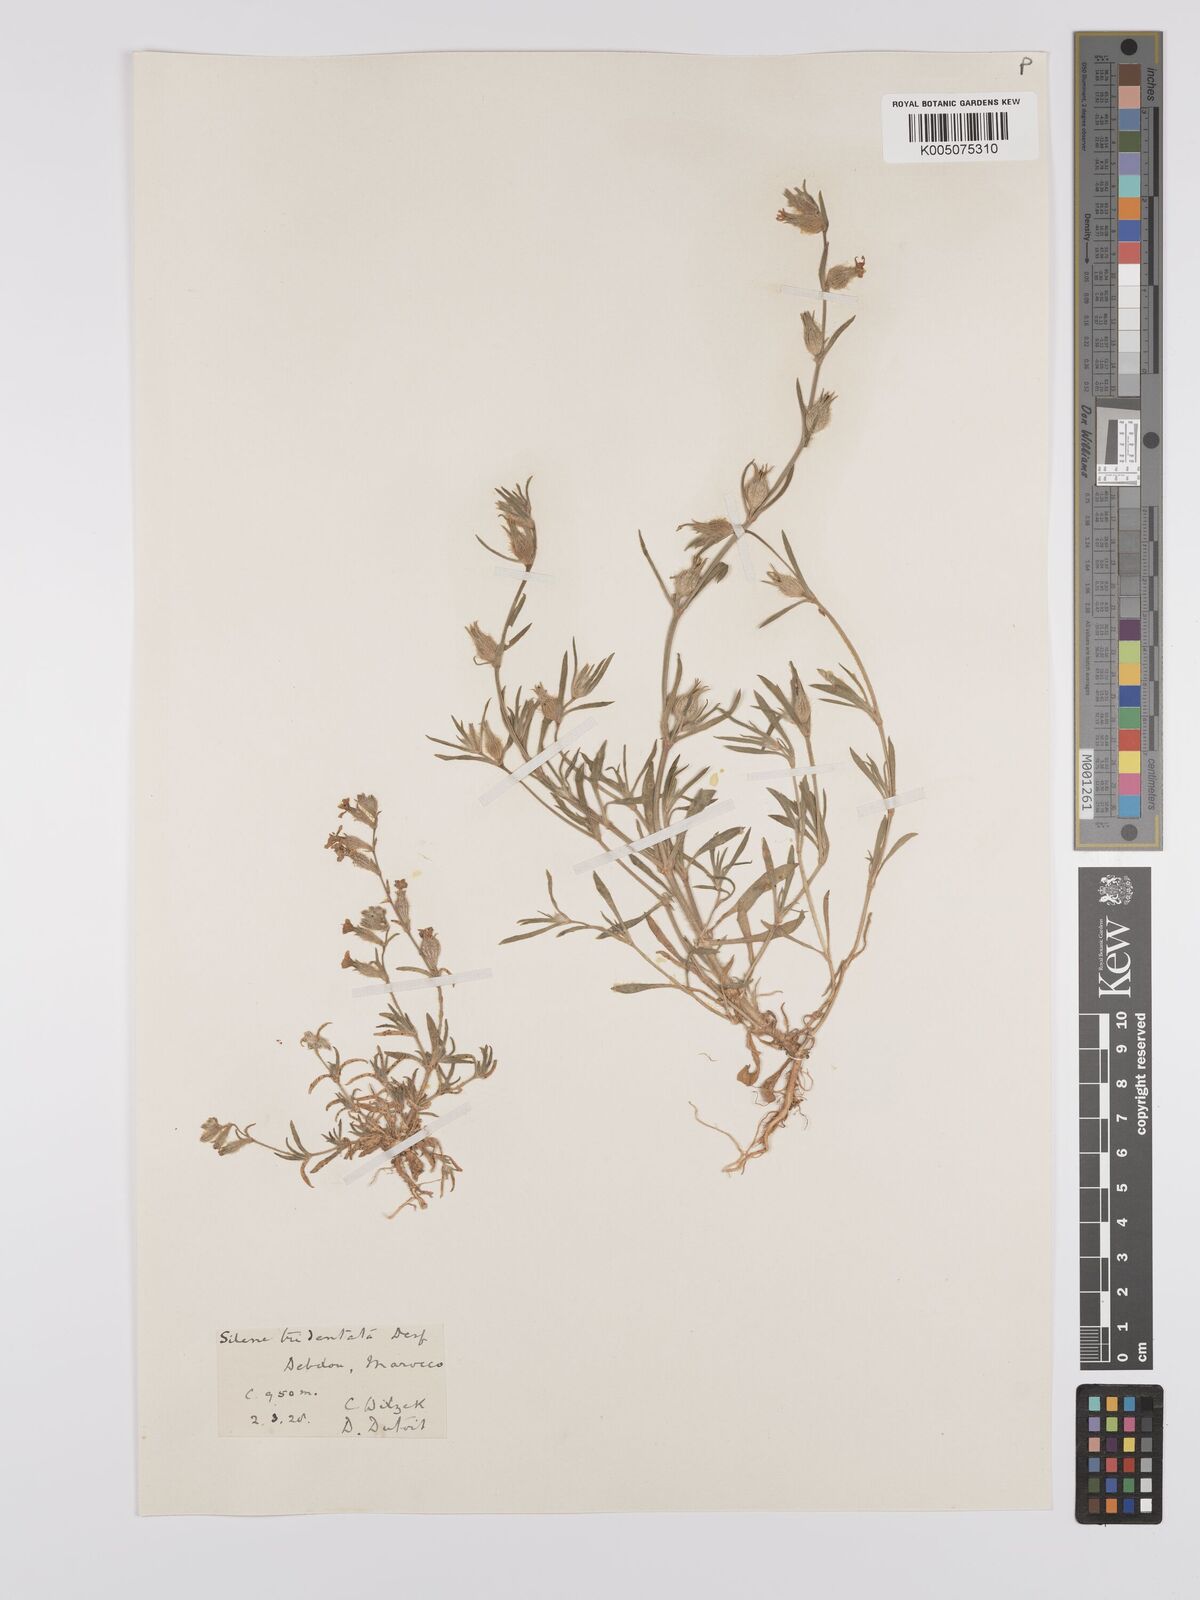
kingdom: Plantae
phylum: Tracheophyta
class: Magnoliopsida
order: Caryophyllales
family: Caryophyllaceae
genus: Silene
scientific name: Silene tridentata
